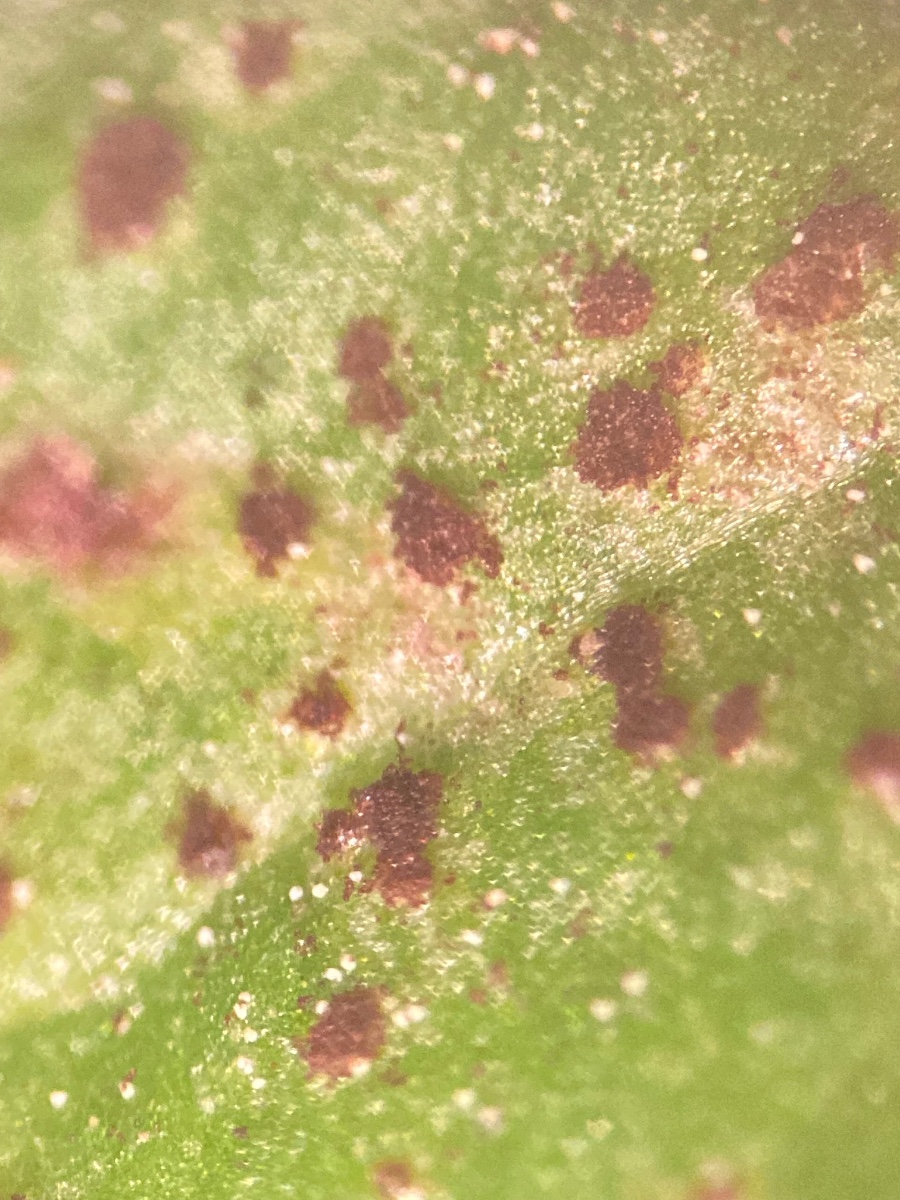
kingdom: Fungi
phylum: Basidiomycota
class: Pucciniomycetes
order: Pucciniales
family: Pucciniaceae
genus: Puccinia
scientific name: Puccinia hieracii
